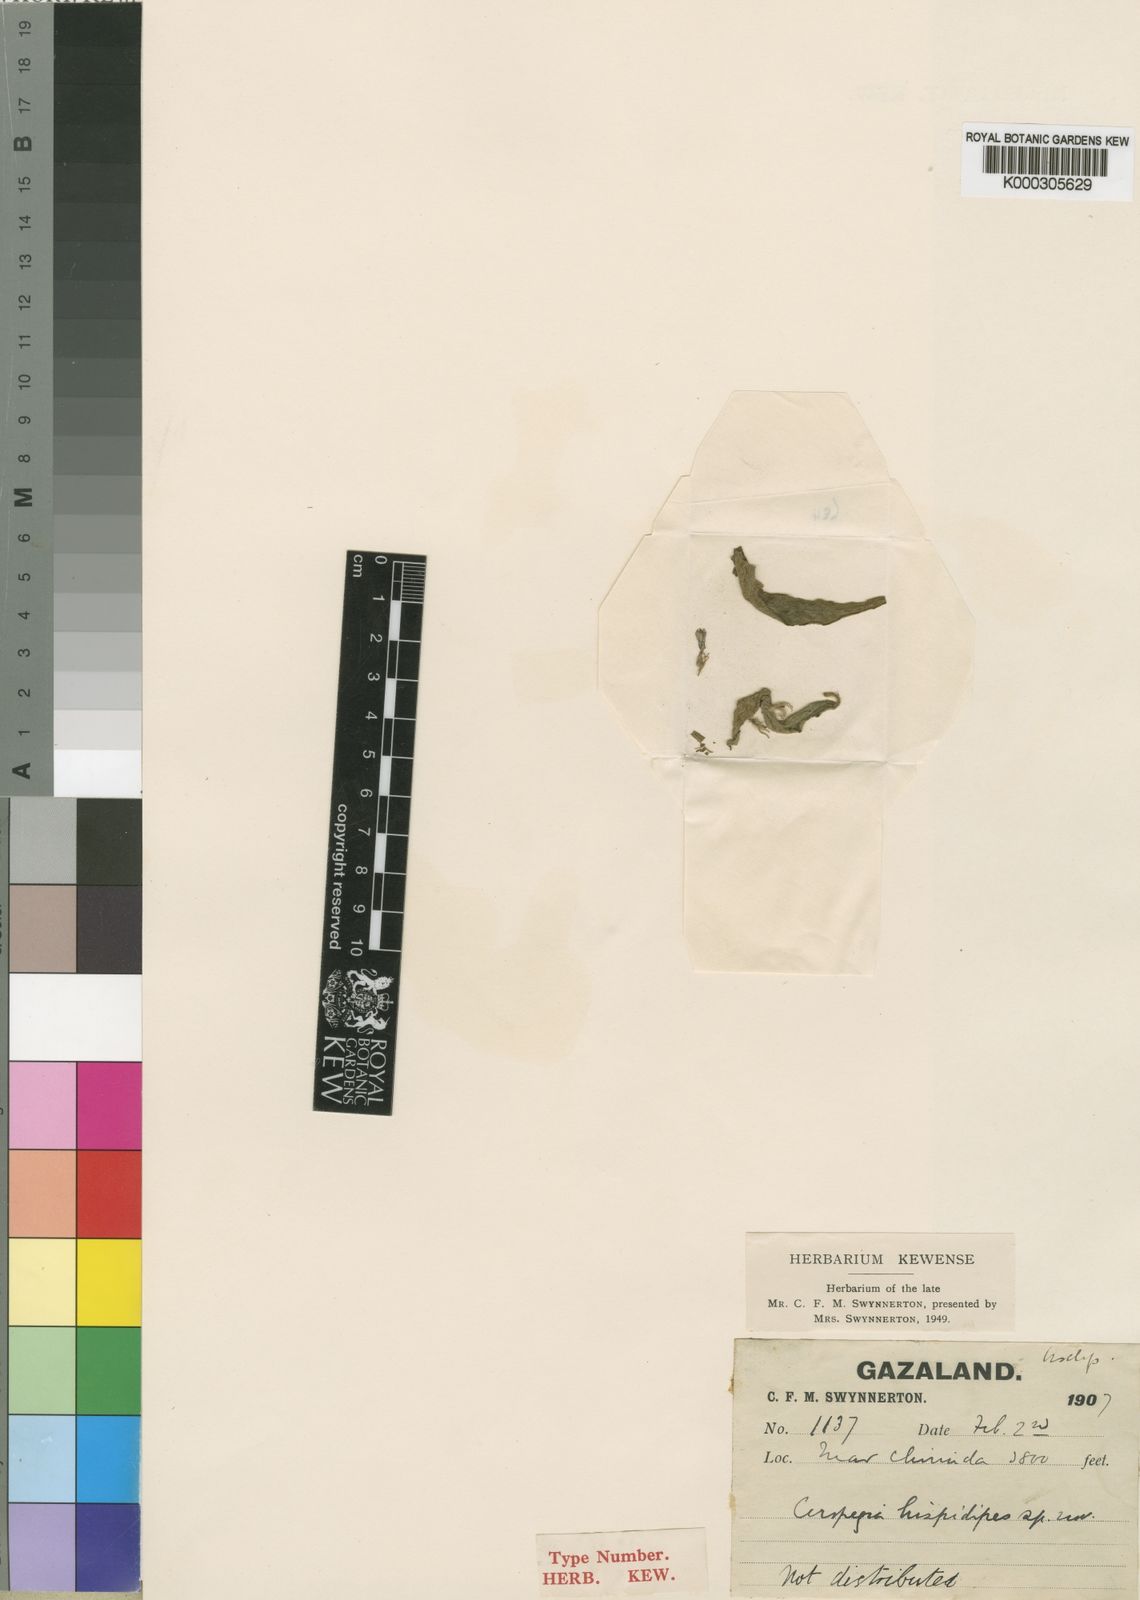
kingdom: Plantae
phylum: Tracheophyta
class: Magnoliopsida
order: Gentianales
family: Apocynaceae
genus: Ceropegia
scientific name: Ceropegia abyssinica
